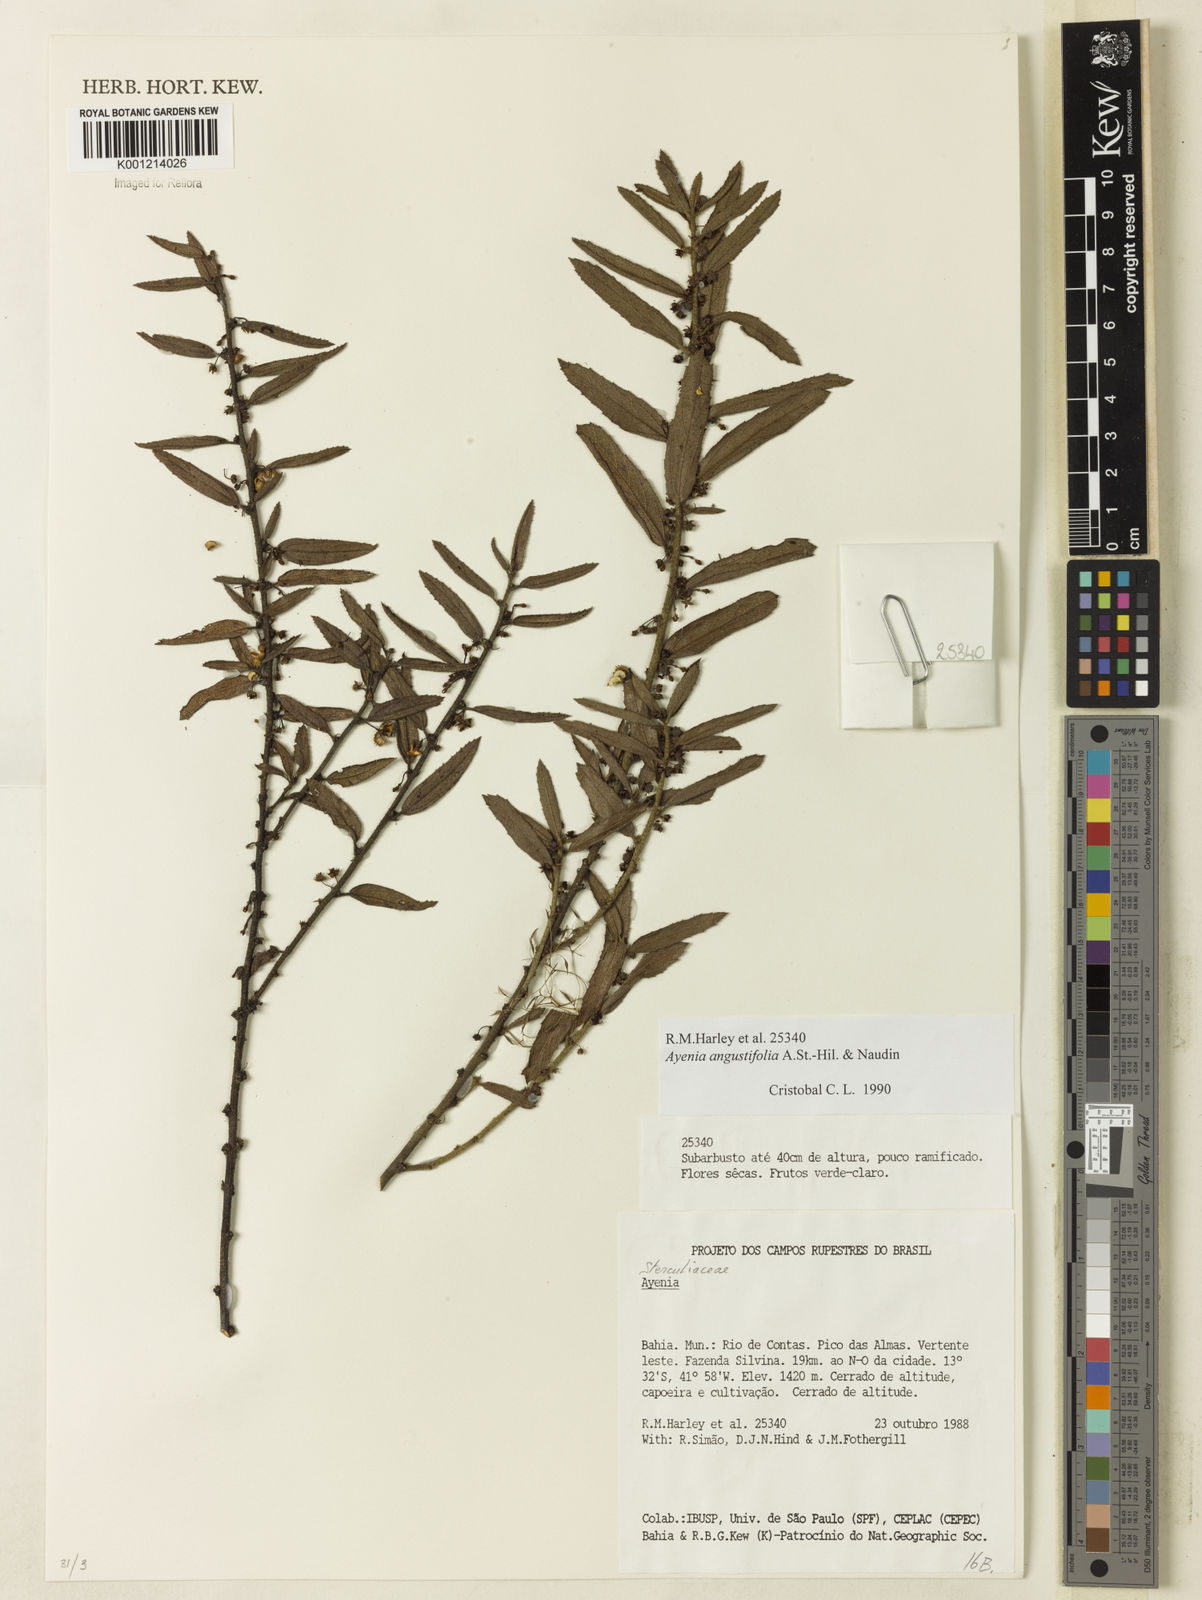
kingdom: Plantae
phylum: Tracheophyta
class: Magnoliopsida
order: Malvales
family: Malvaceae
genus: Ayenia
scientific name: Ayenia angustifolia
